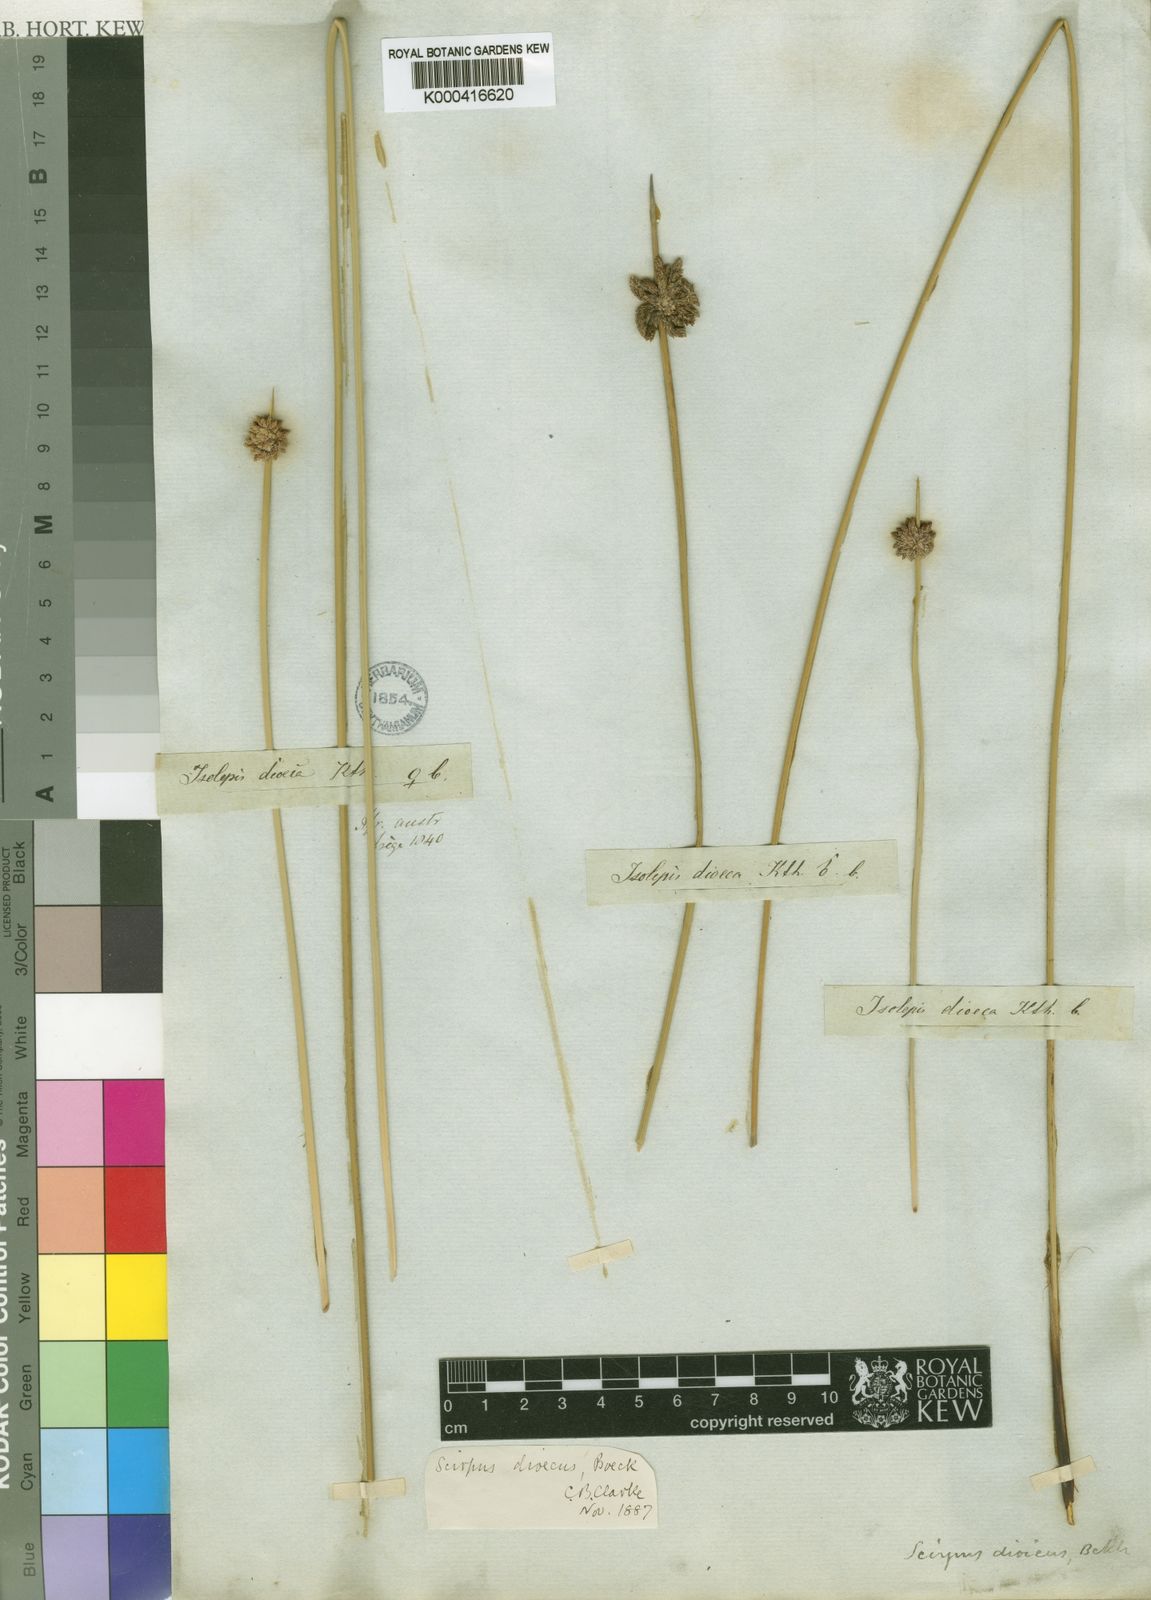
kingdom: Plantae
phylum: Tracheophyta
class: Liliopsida
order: Poales
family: Cyperaceae
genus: Afroscirpoides
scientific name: Afroscirpoides dioeca
